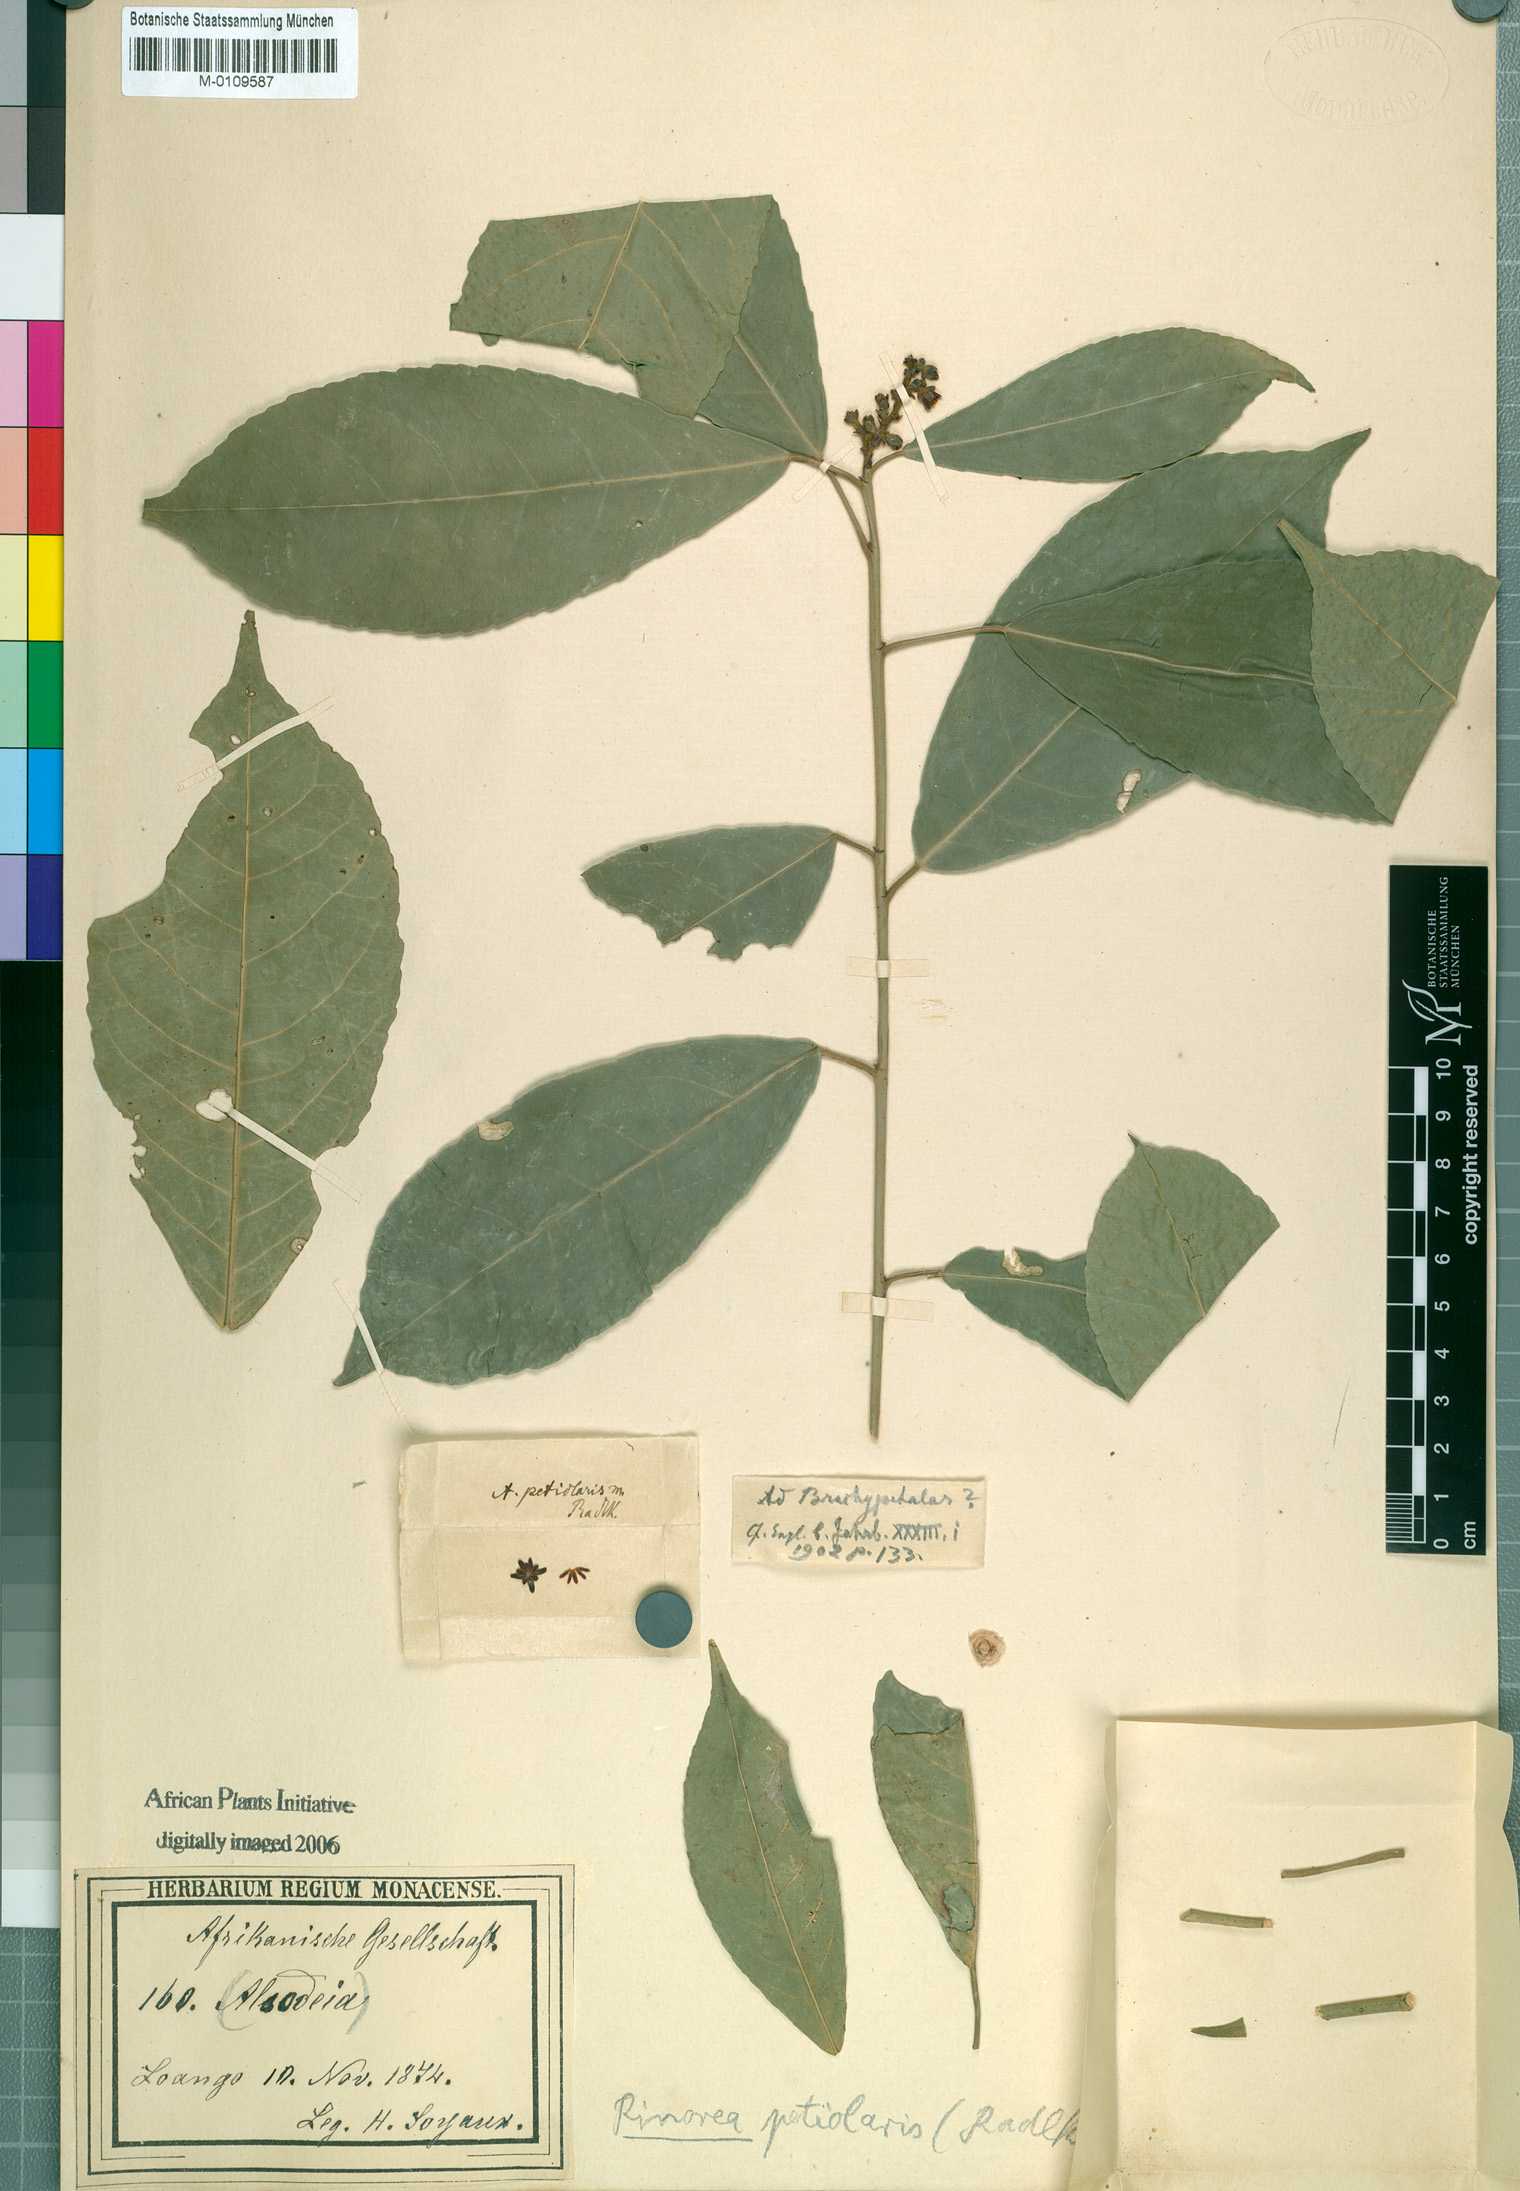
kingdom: Plantae
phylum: Tracheophyta
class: Magnoliopsida
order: Malpighiales
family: Violaceae
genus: Rinorea
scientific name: Rinorea
